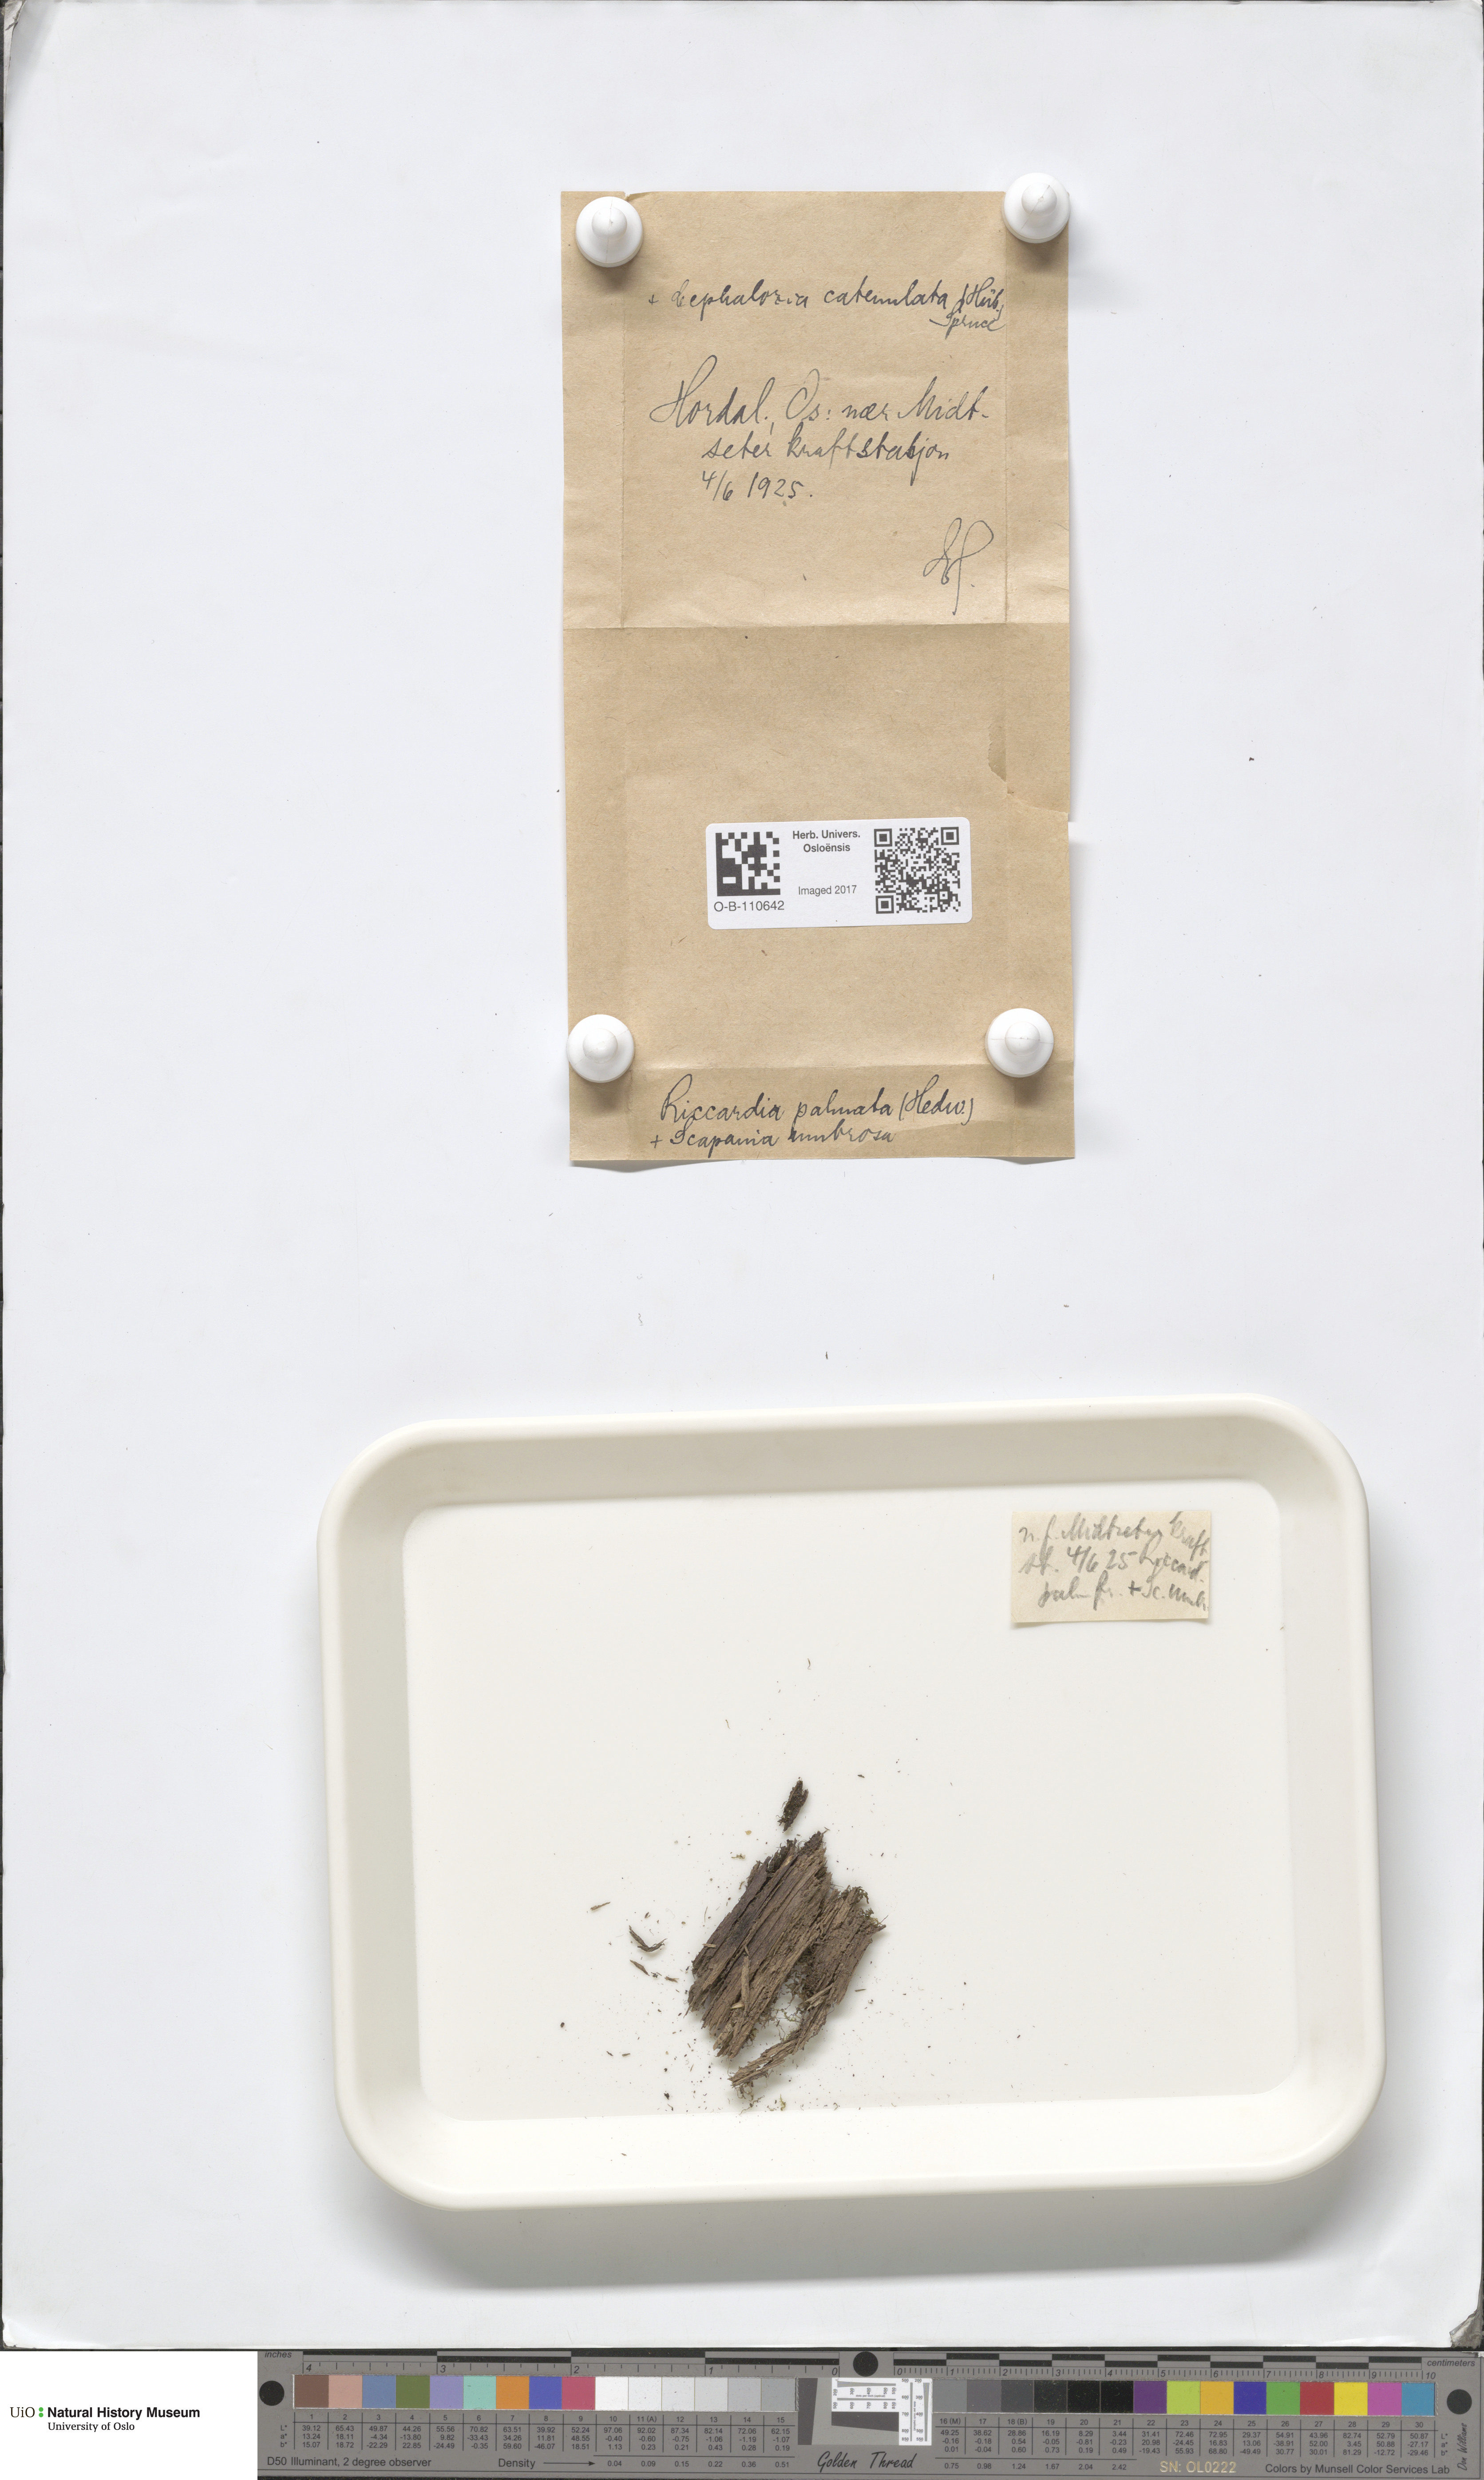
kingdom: Plantae
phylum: Marchantiophyta
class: Jungermanniopsida
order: Metzgeriales
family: Aneuraceae
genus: Riccardia
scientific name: Riccardia palmata
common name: Palmate germanderwort
